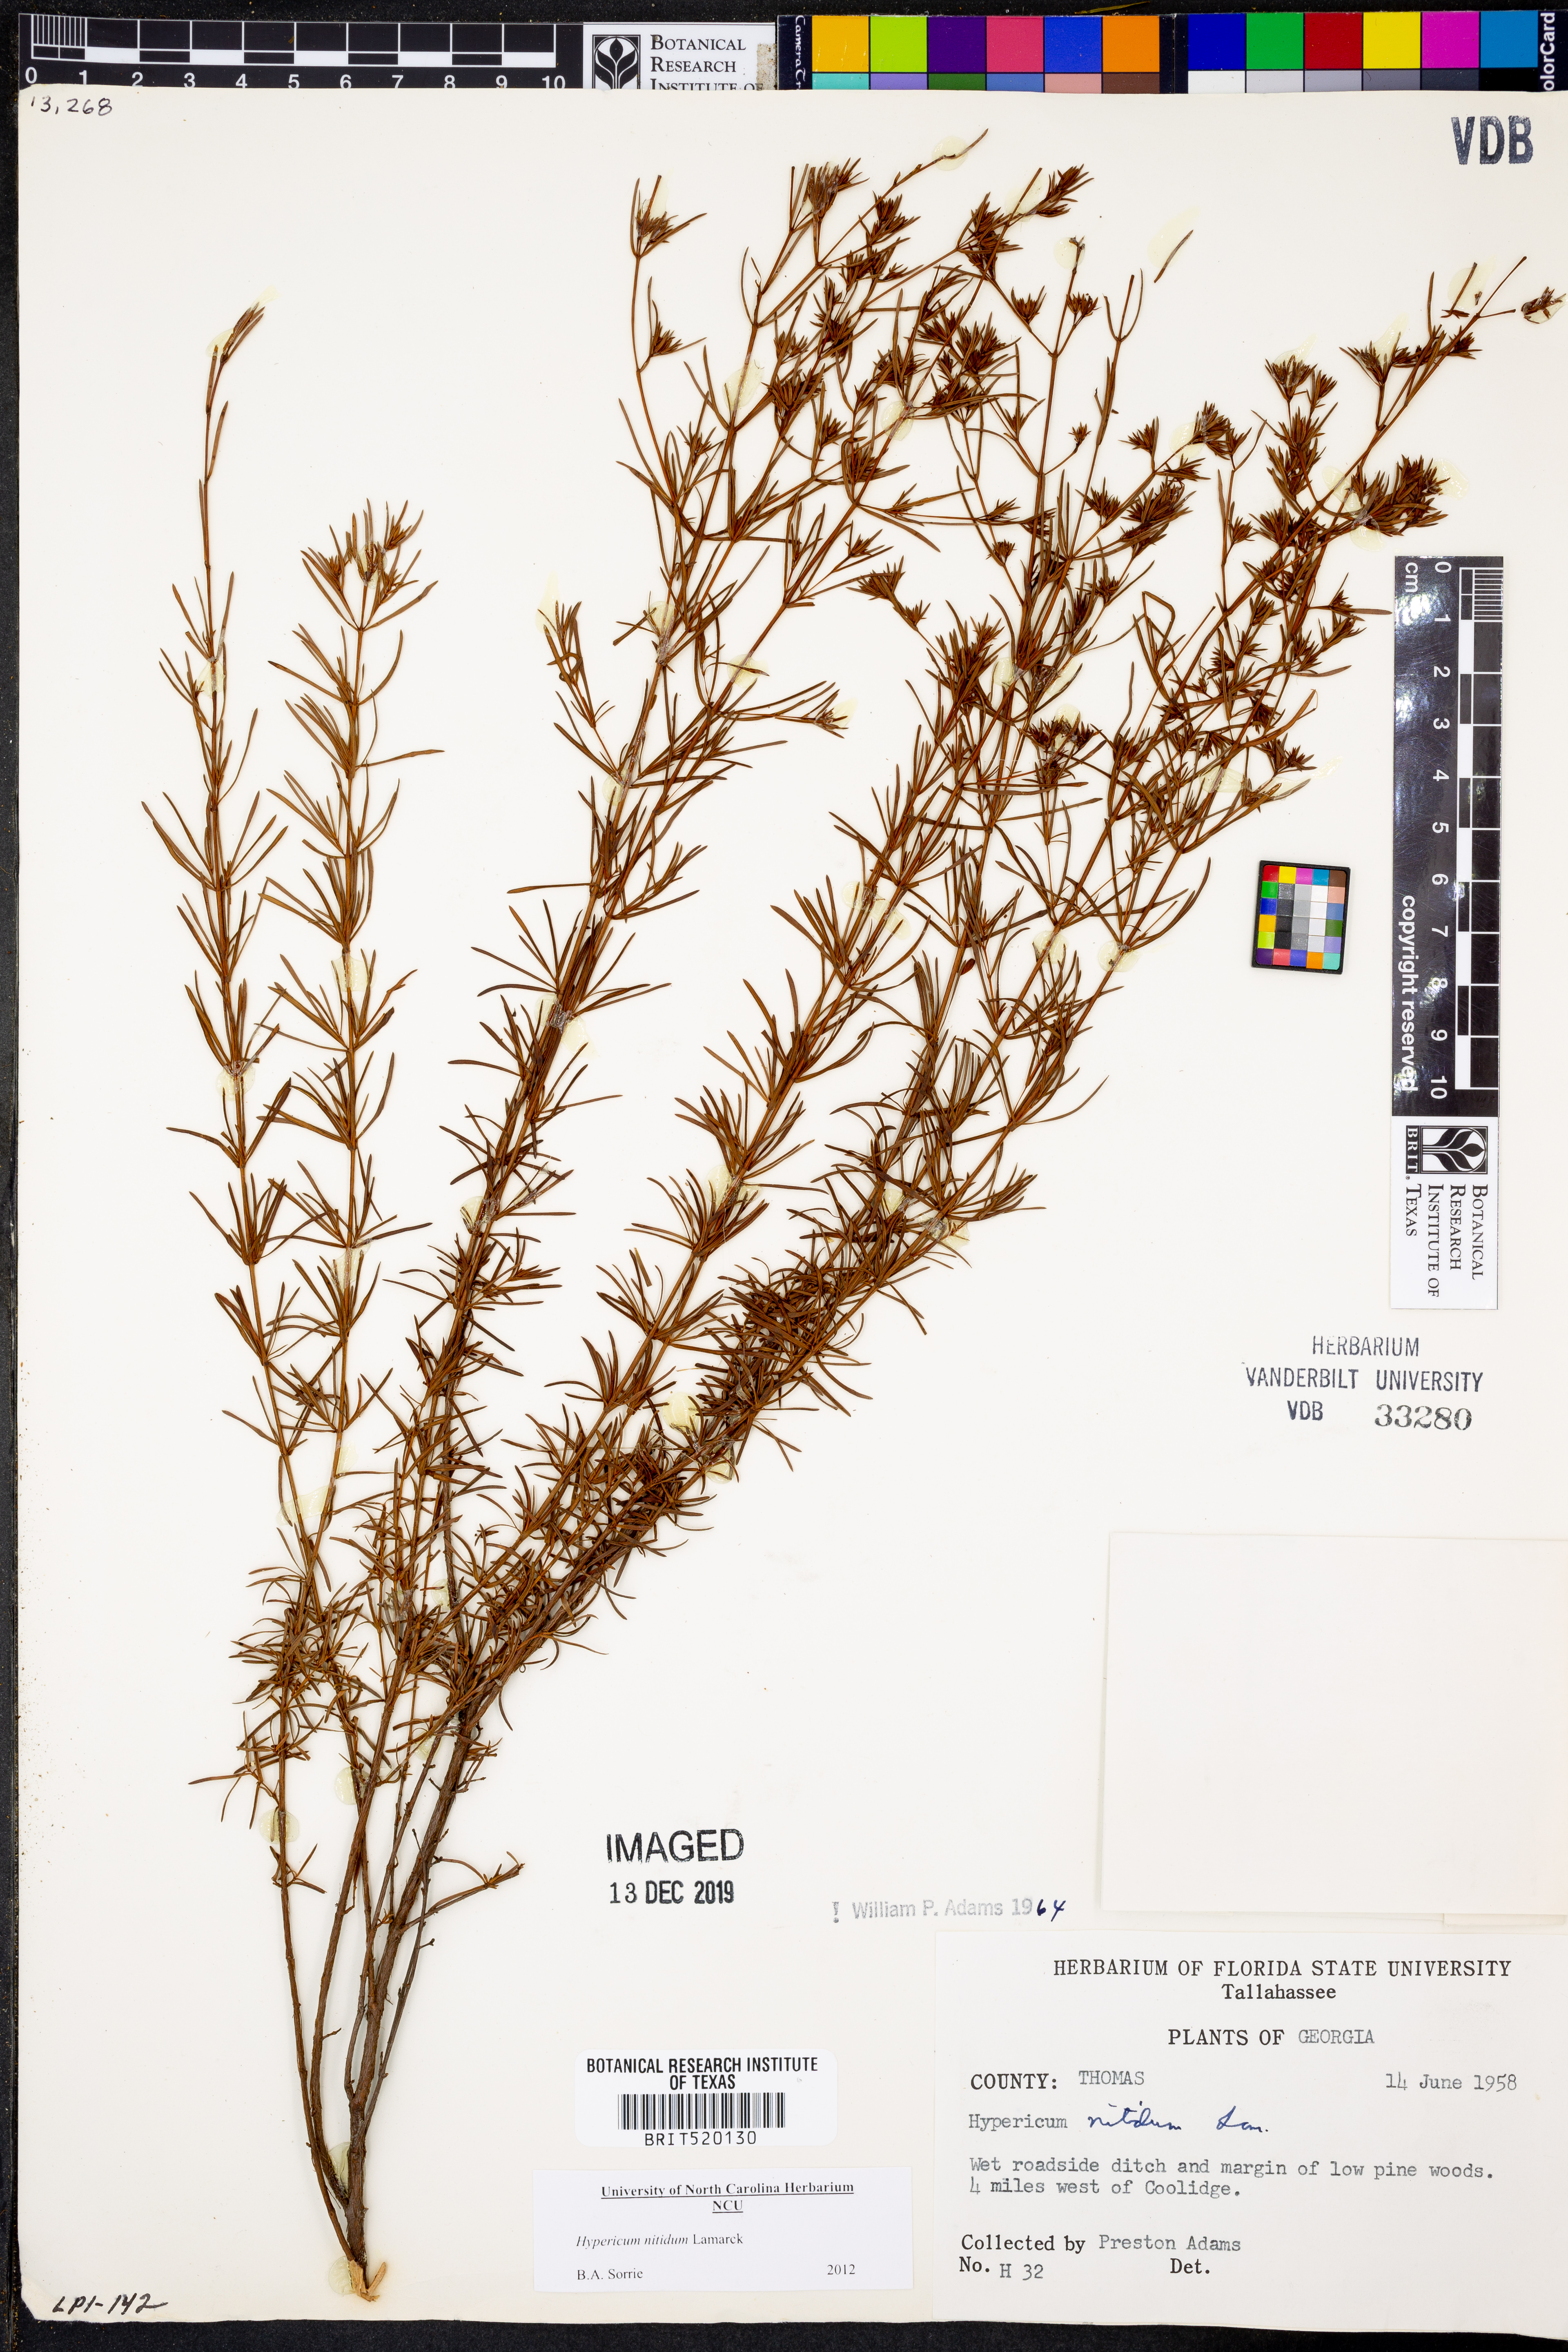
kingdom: Plantae
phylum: Tracheophyta
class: Magnoliopsida
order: Malpighiales
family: Hypericaceae
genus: Hypericum
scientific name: Hypericum nitidum
